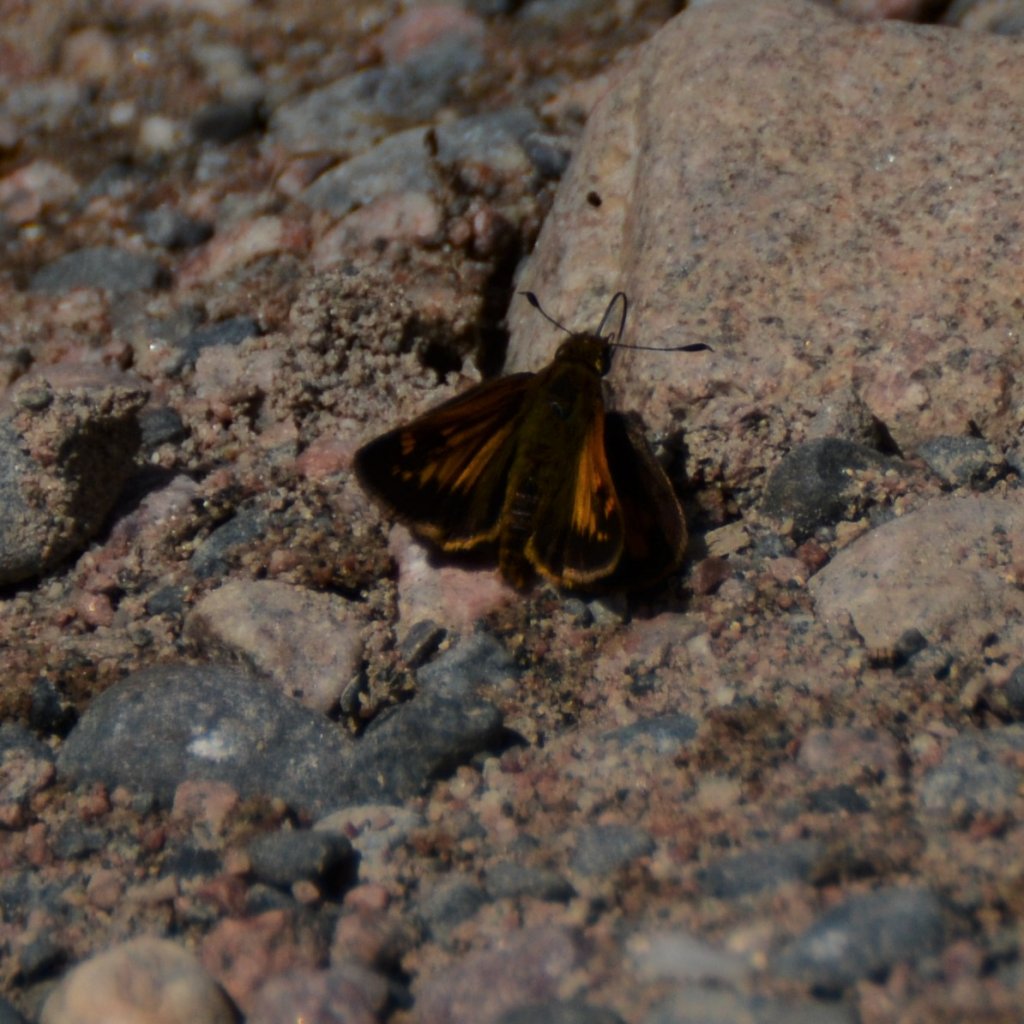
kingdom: Animalia
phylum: Arthropoda
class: Insecta
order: Lepidoptera
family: Hesperiidae
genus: Lon
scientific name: Lon hobomok
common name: Hobomok Skipper
